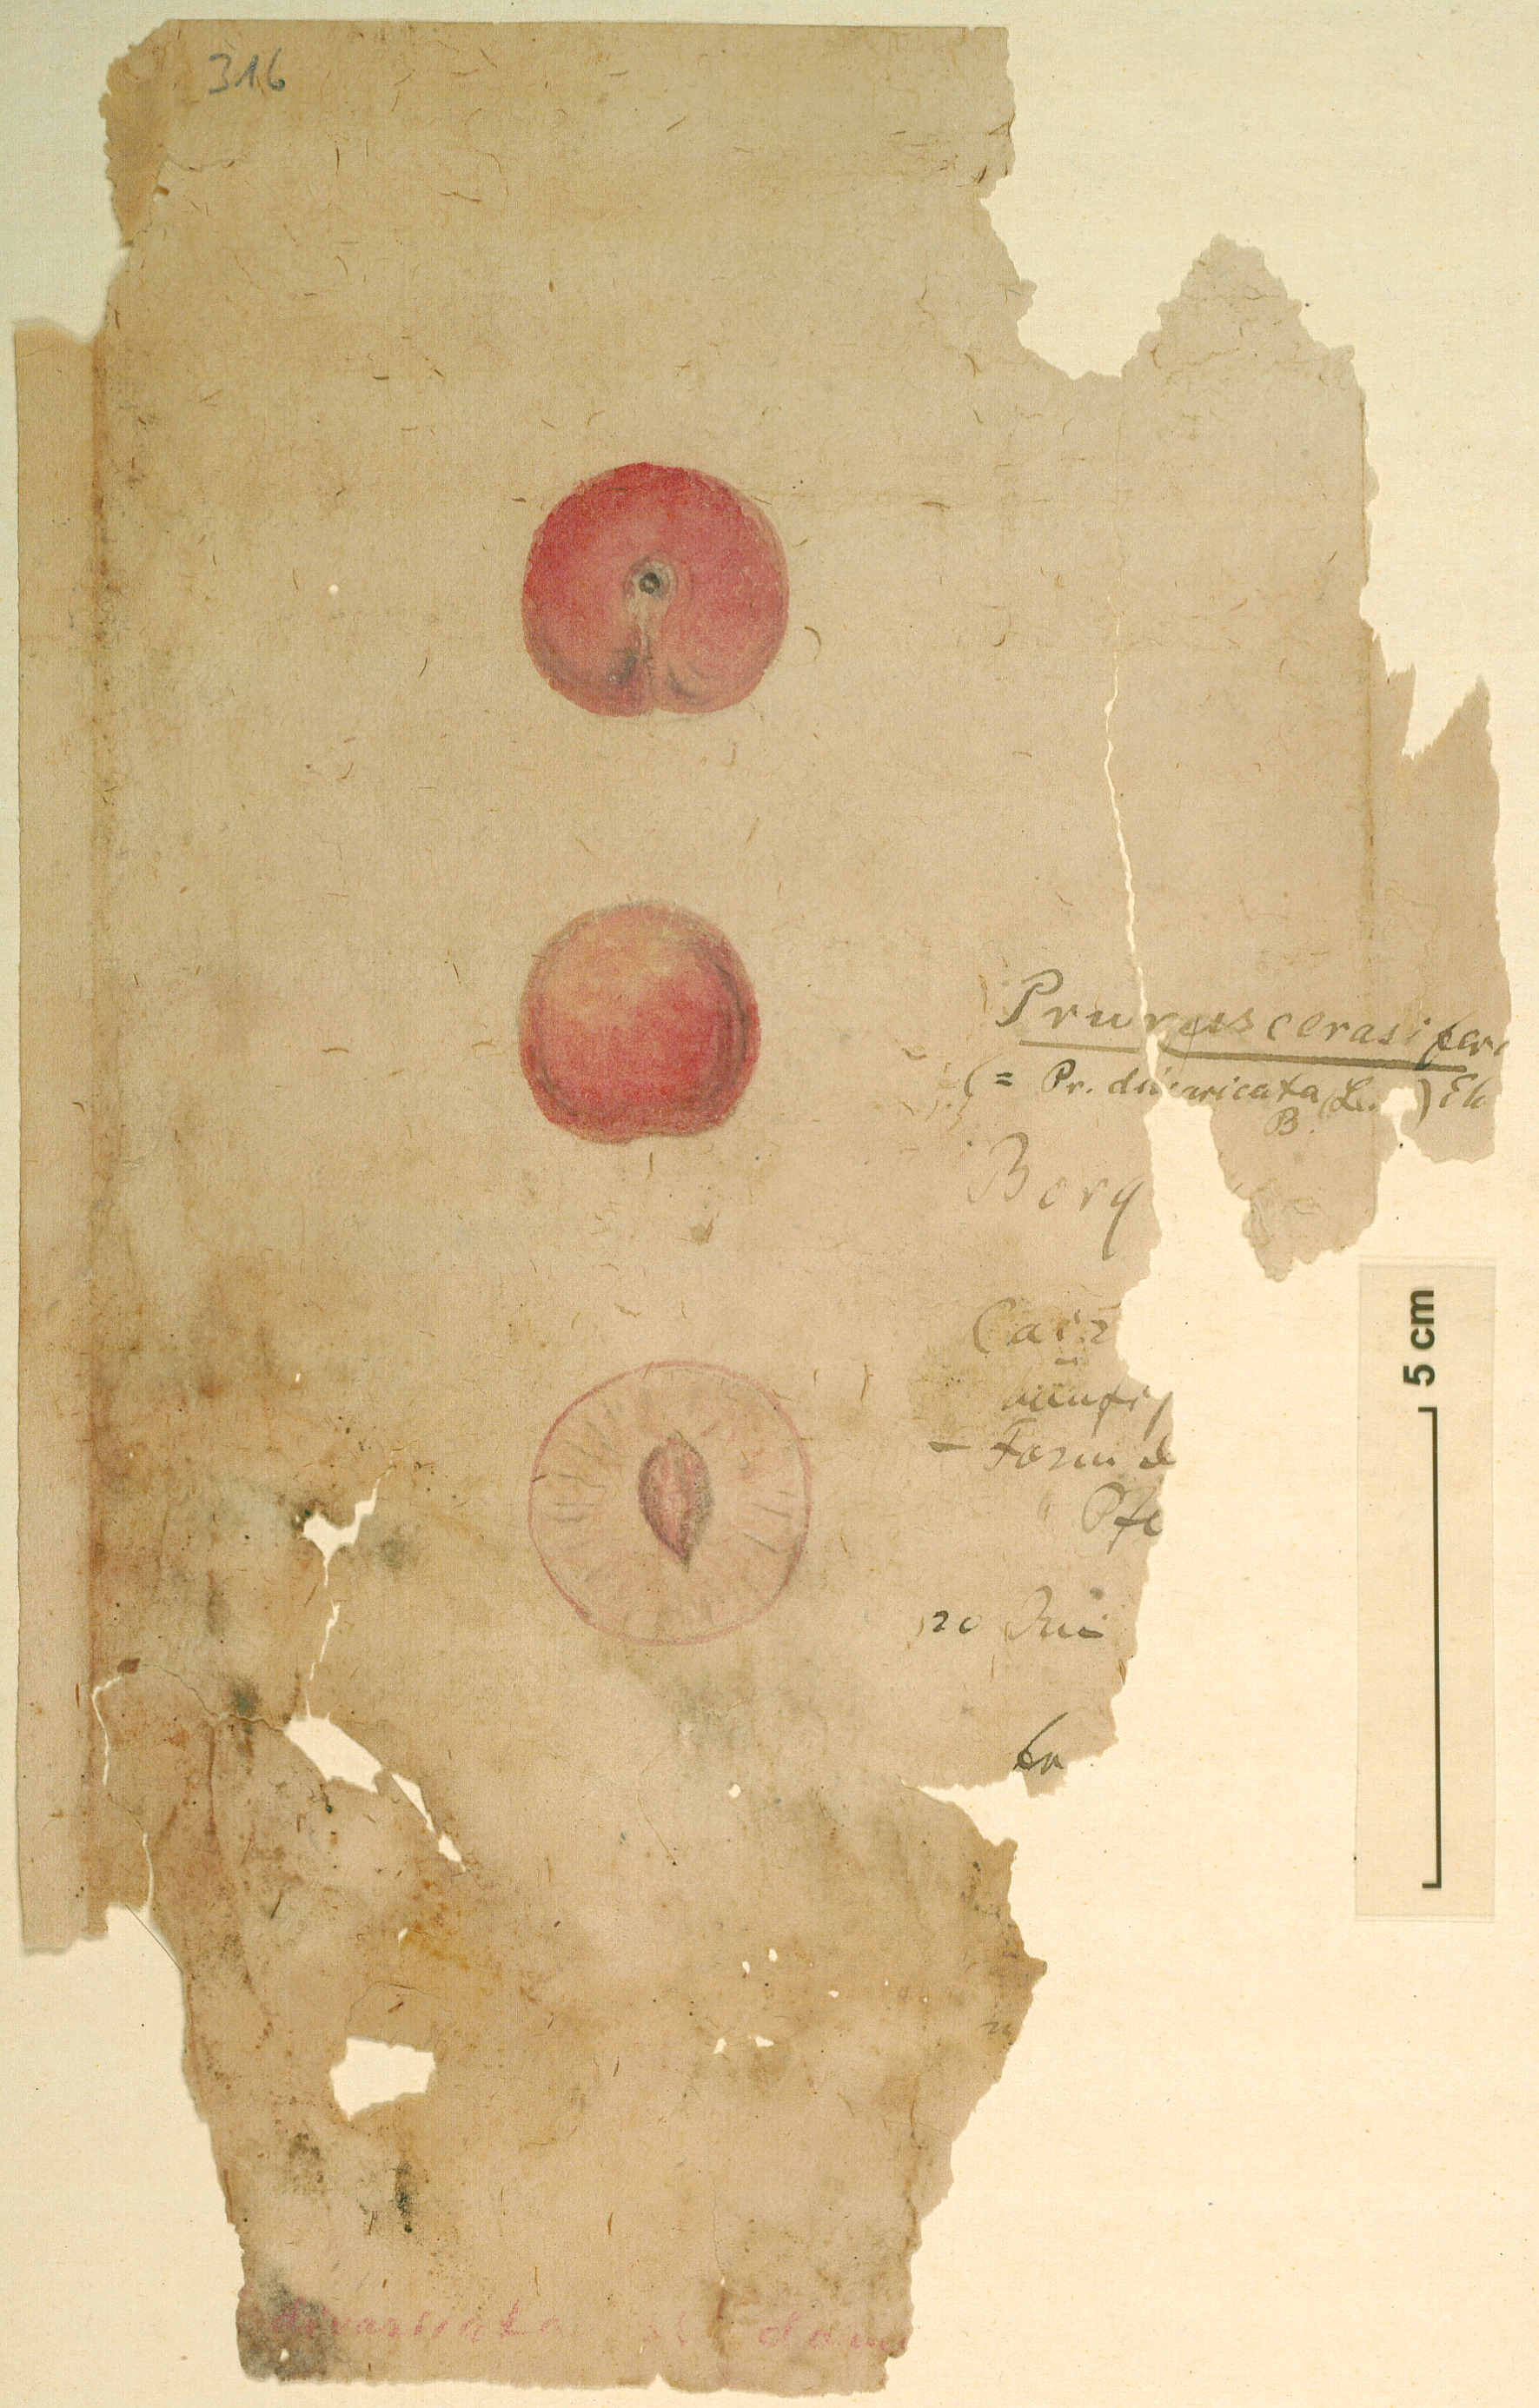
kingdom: Plantae
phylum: Tracheophyta
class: Magnoliopsida
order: Rosales
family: Rosaceae
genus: Prunus
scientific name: Prunus cerasifera
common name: Cherry plum
